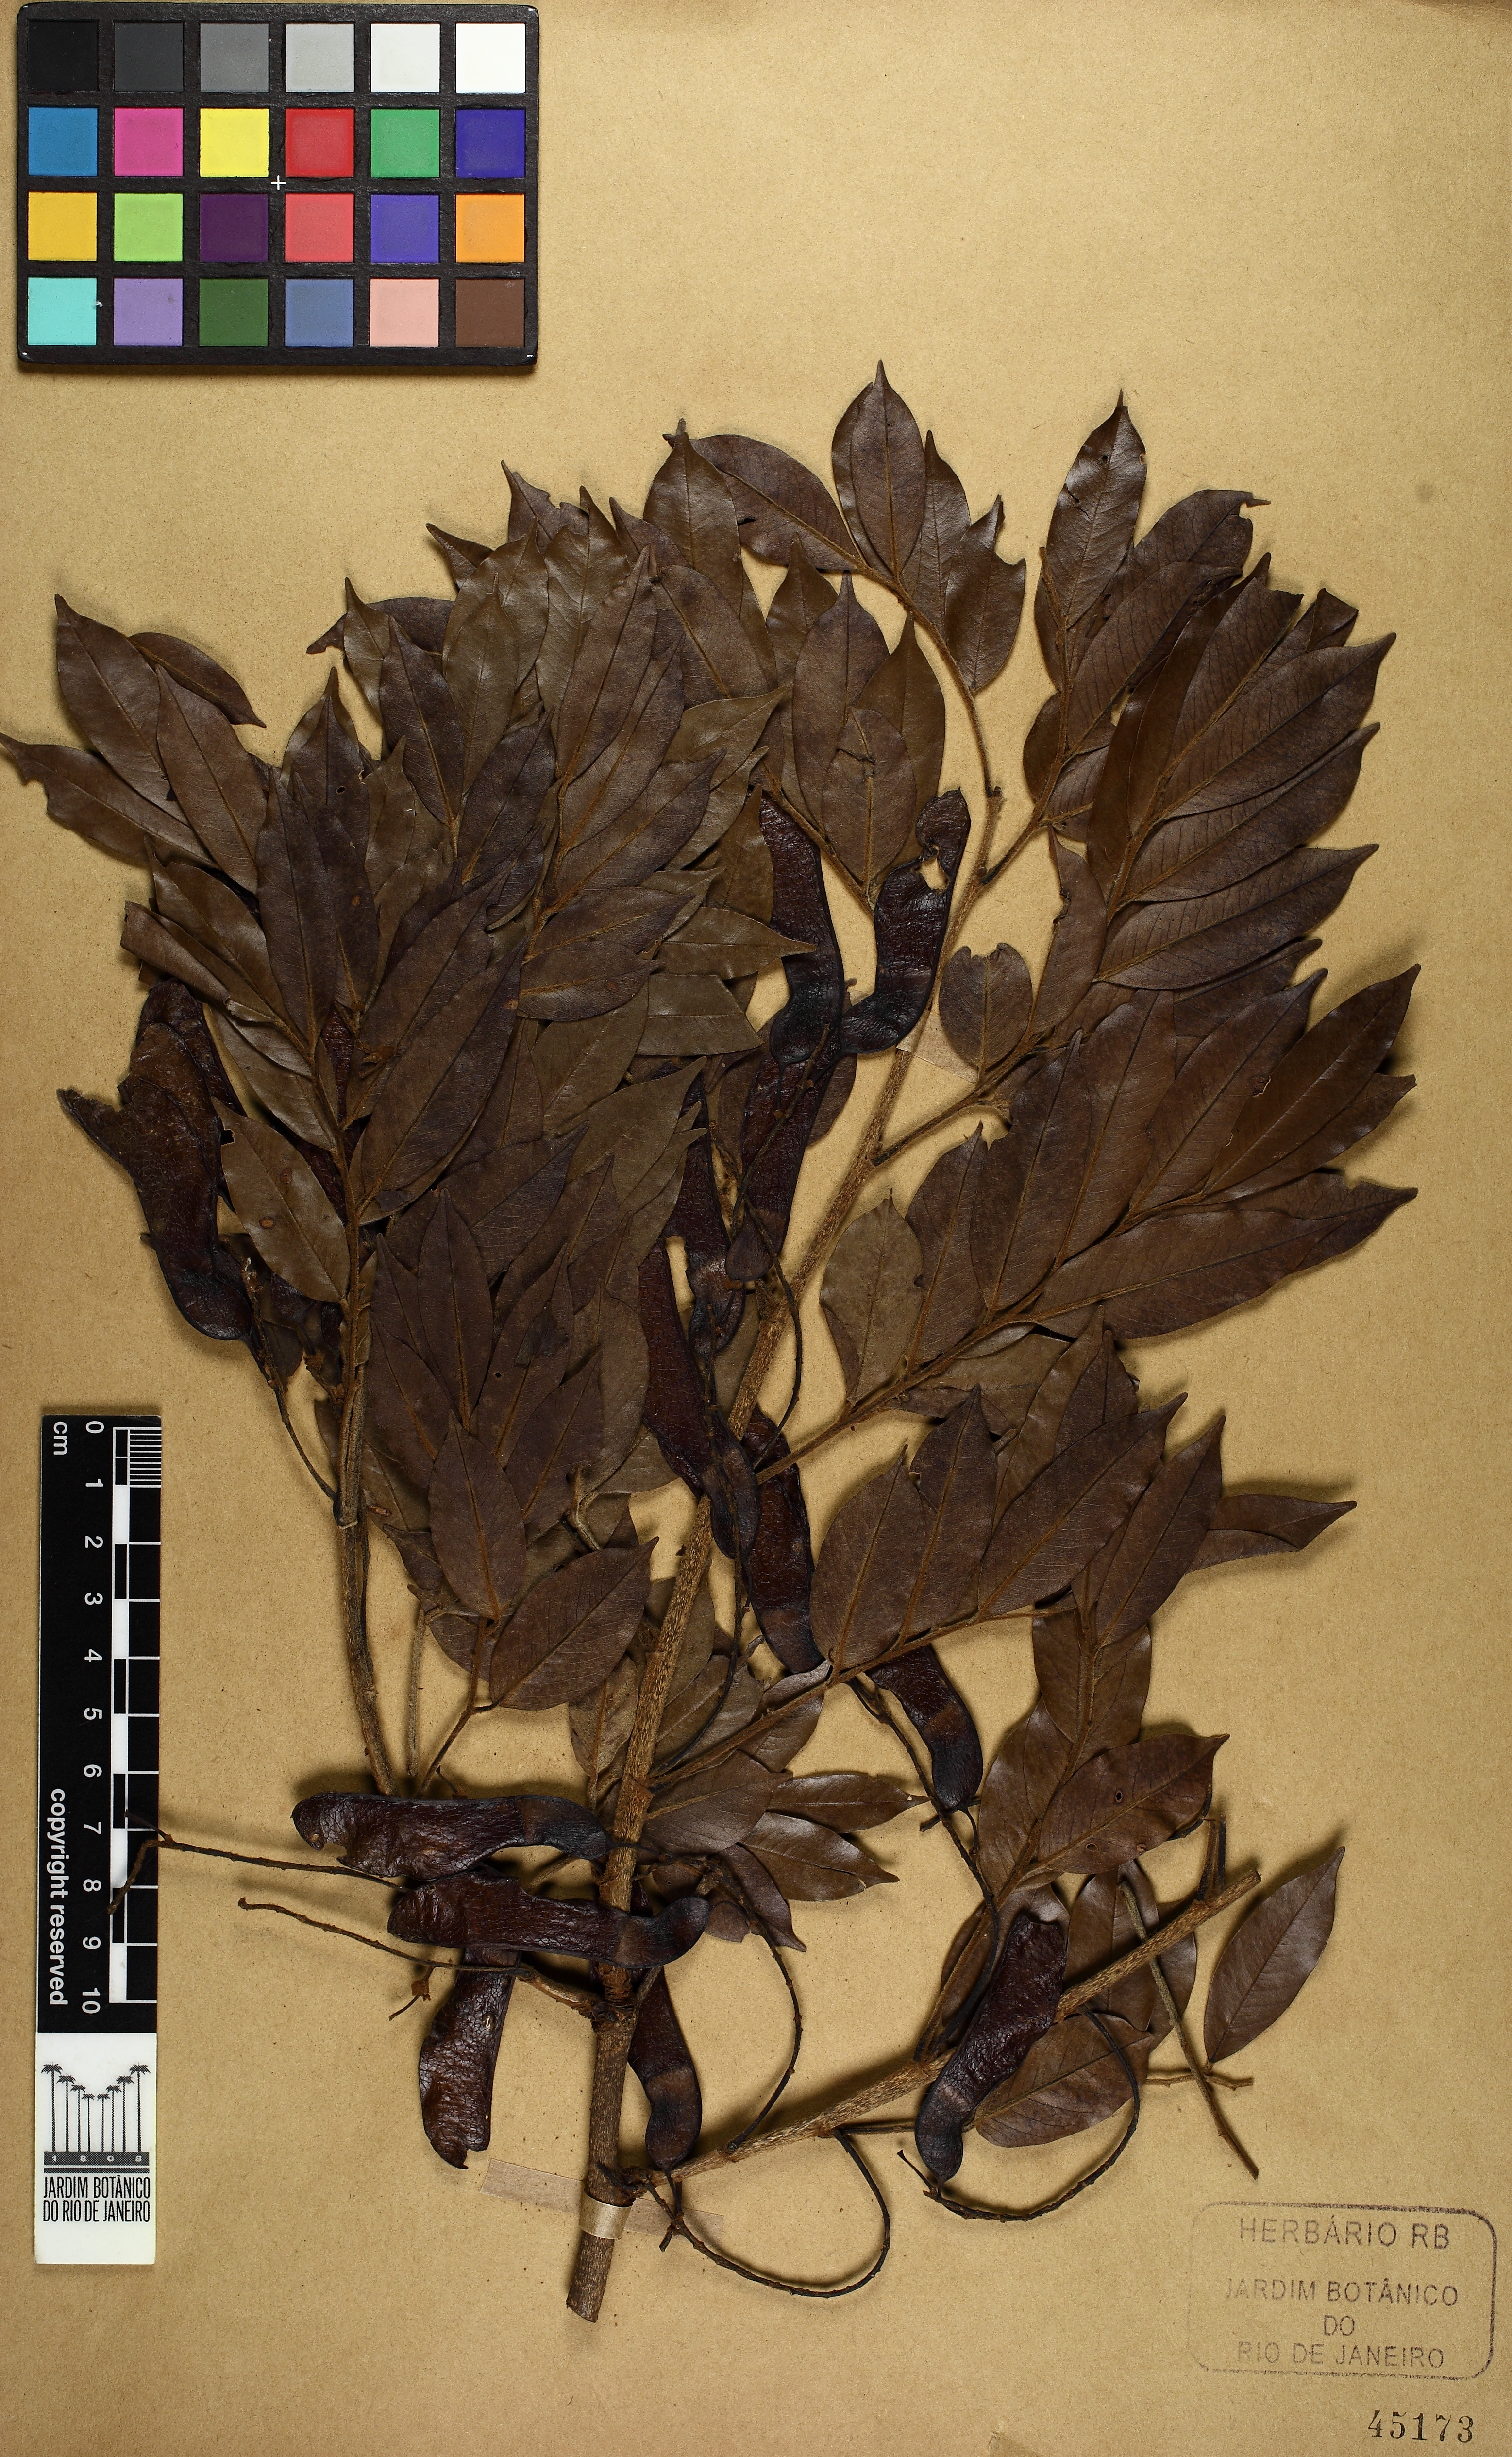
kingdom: Plantae
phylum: Tracheophyta
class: Magnoliopsida
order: Fabales
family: Fabaceae
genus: Machaerium
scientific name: Machaerium brasiliense
